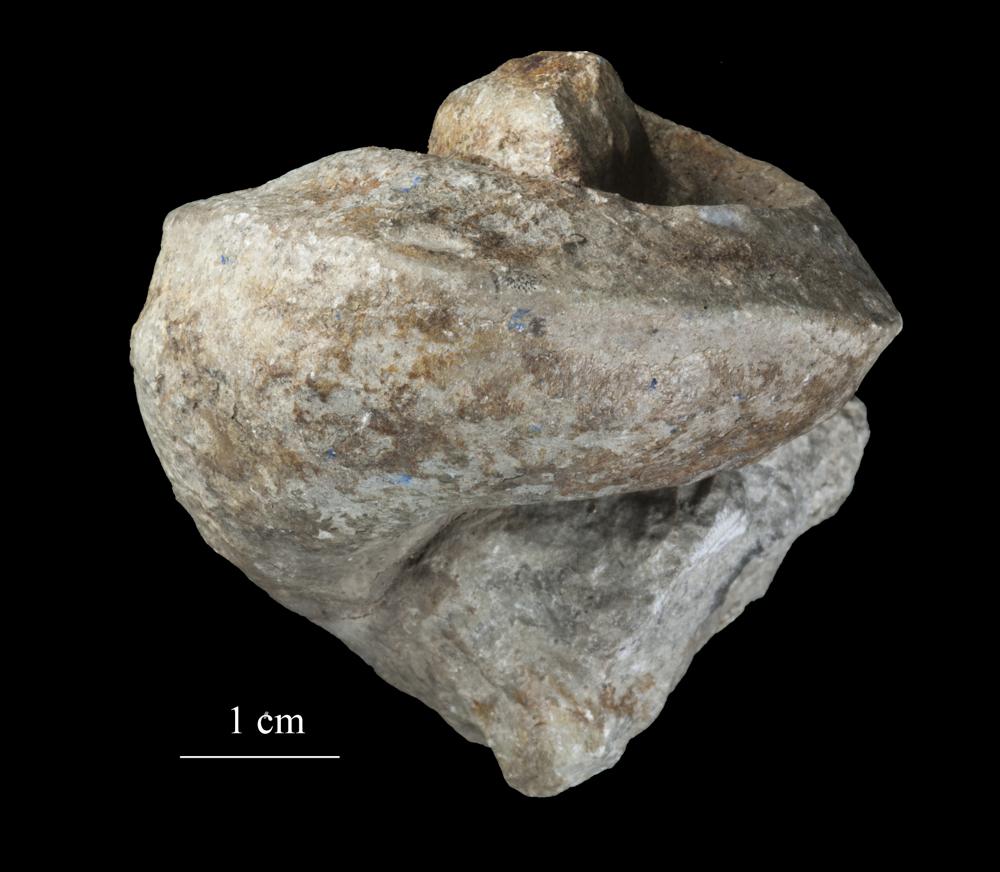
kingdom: Animalia
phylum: Mollusca
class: Gastropoda
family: Lophospiridae
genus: Lophospira
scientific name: Lophospira lyckholmiensis
